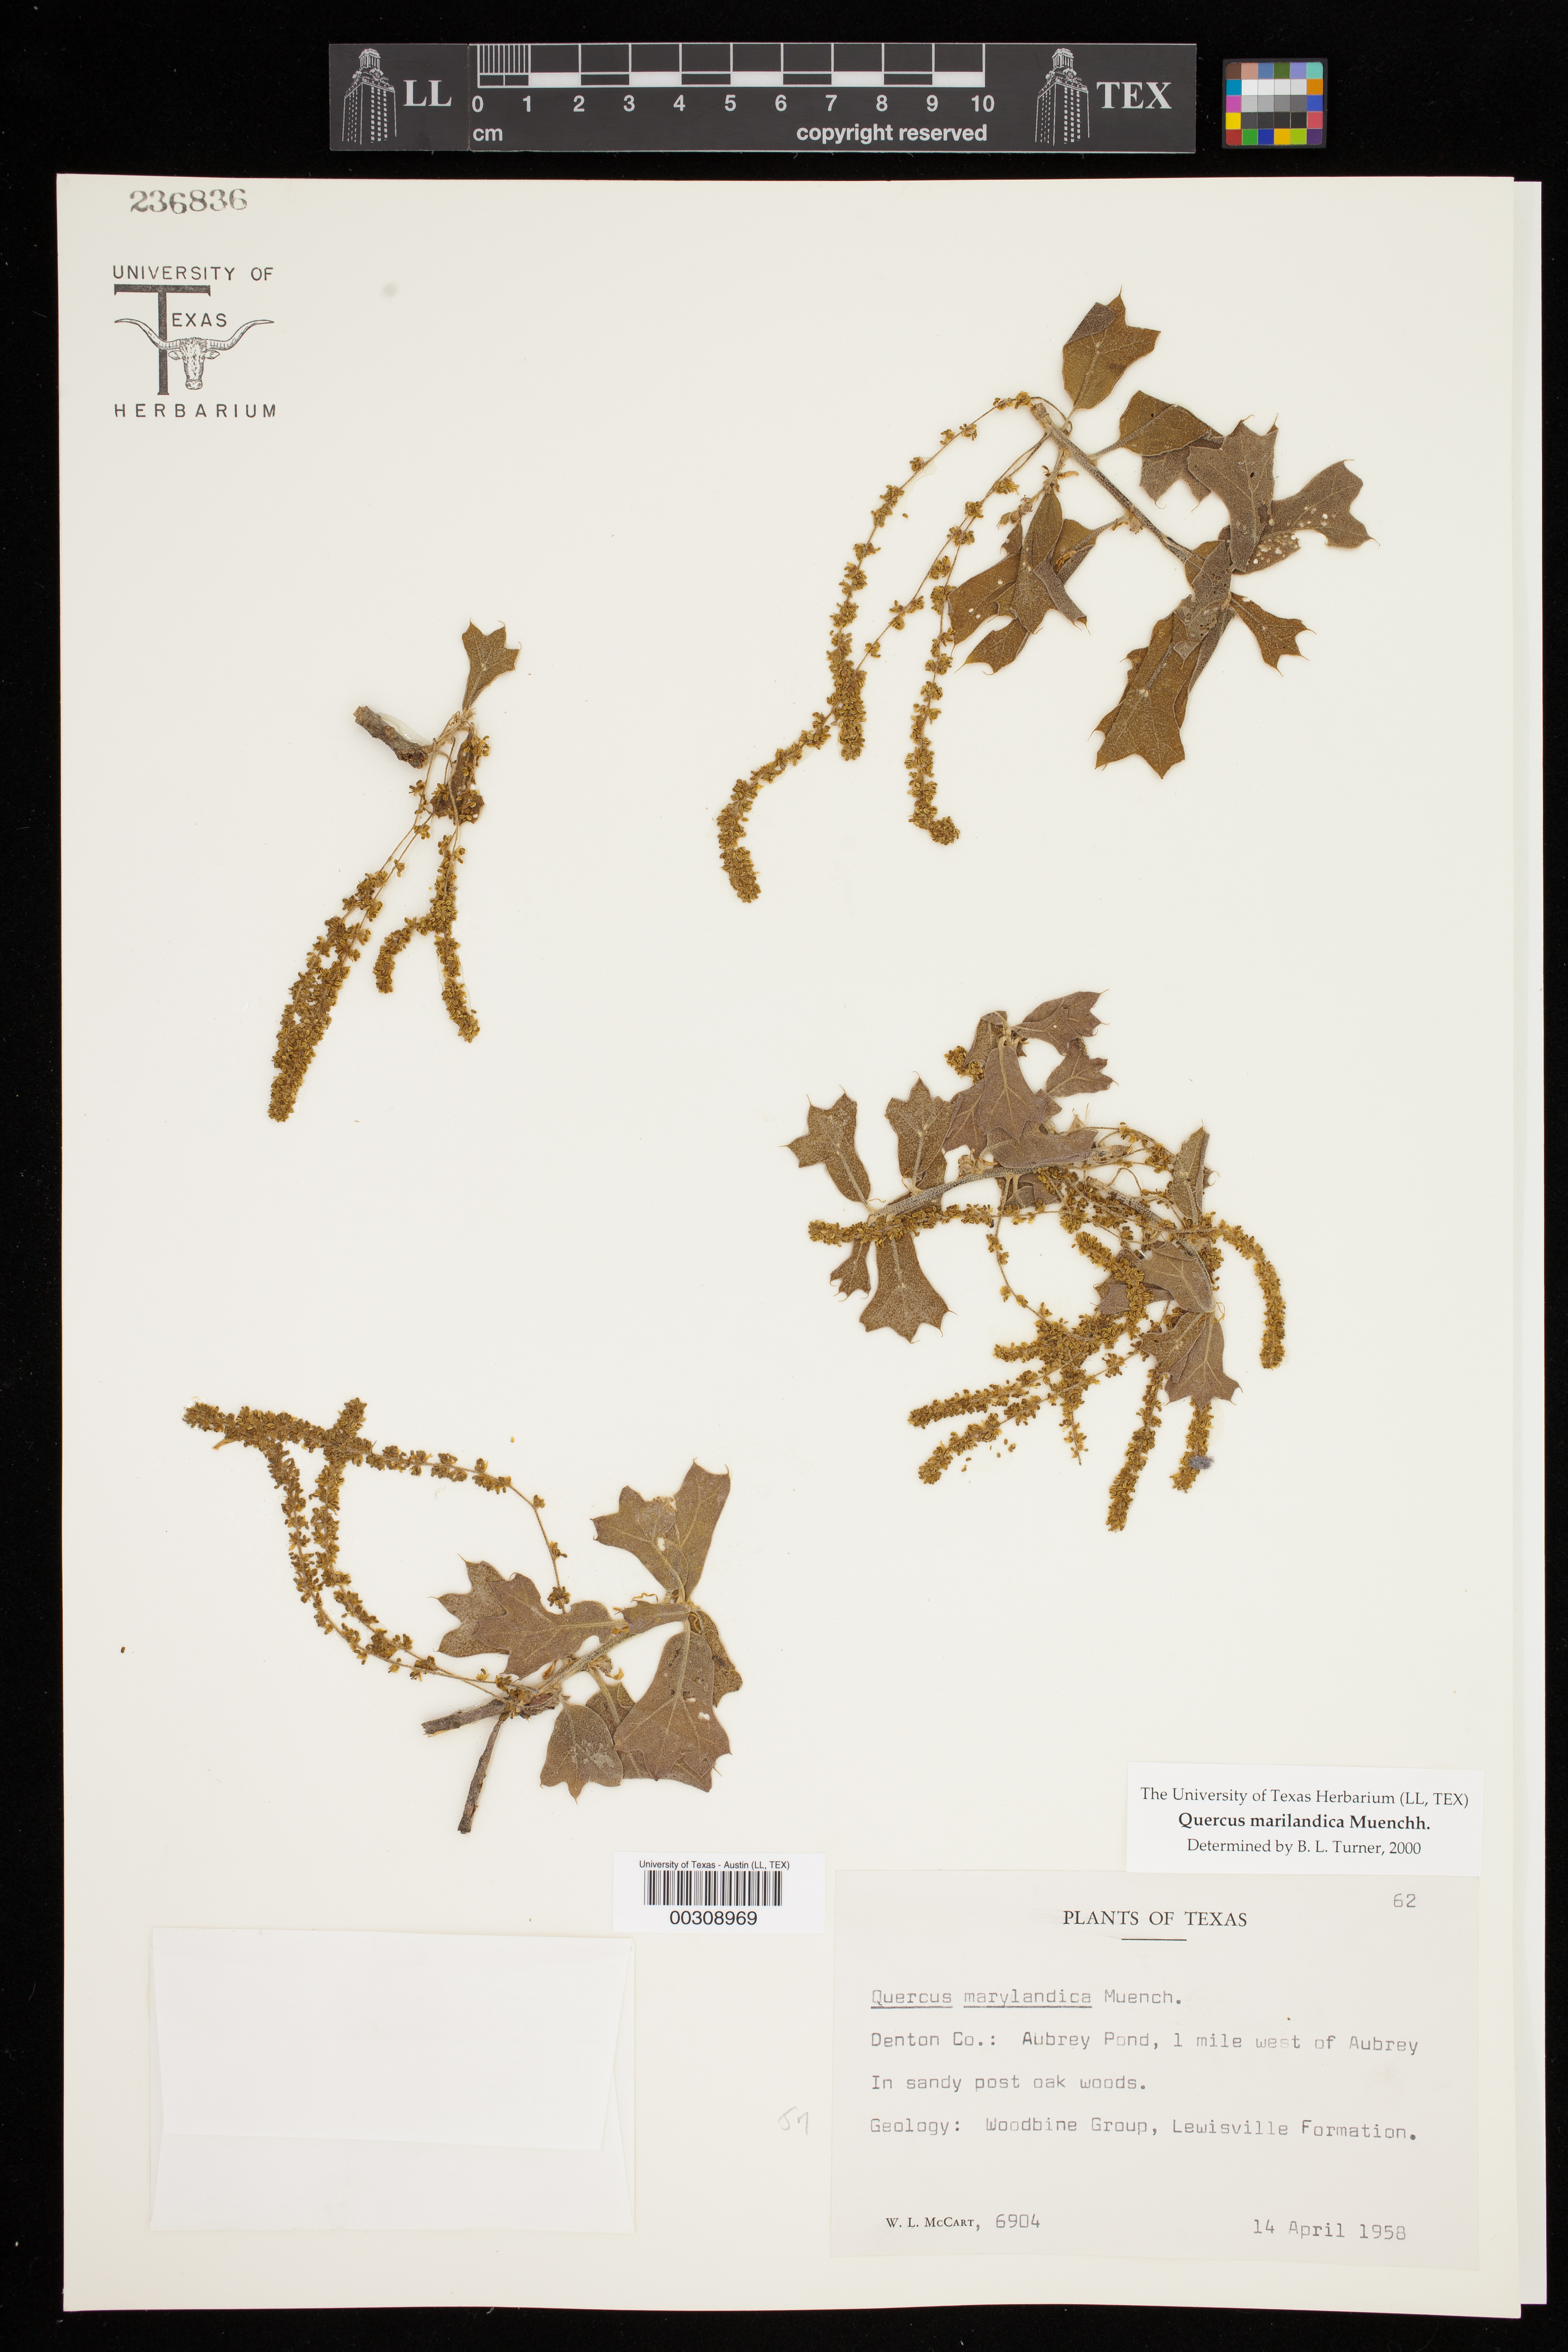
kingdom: Plantae
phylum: Tracheophyta
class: Magnoliopsida
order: Fagales
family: Fagaceae
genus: Quercus
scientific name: Quercus marilandica
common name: Blackjack oak
